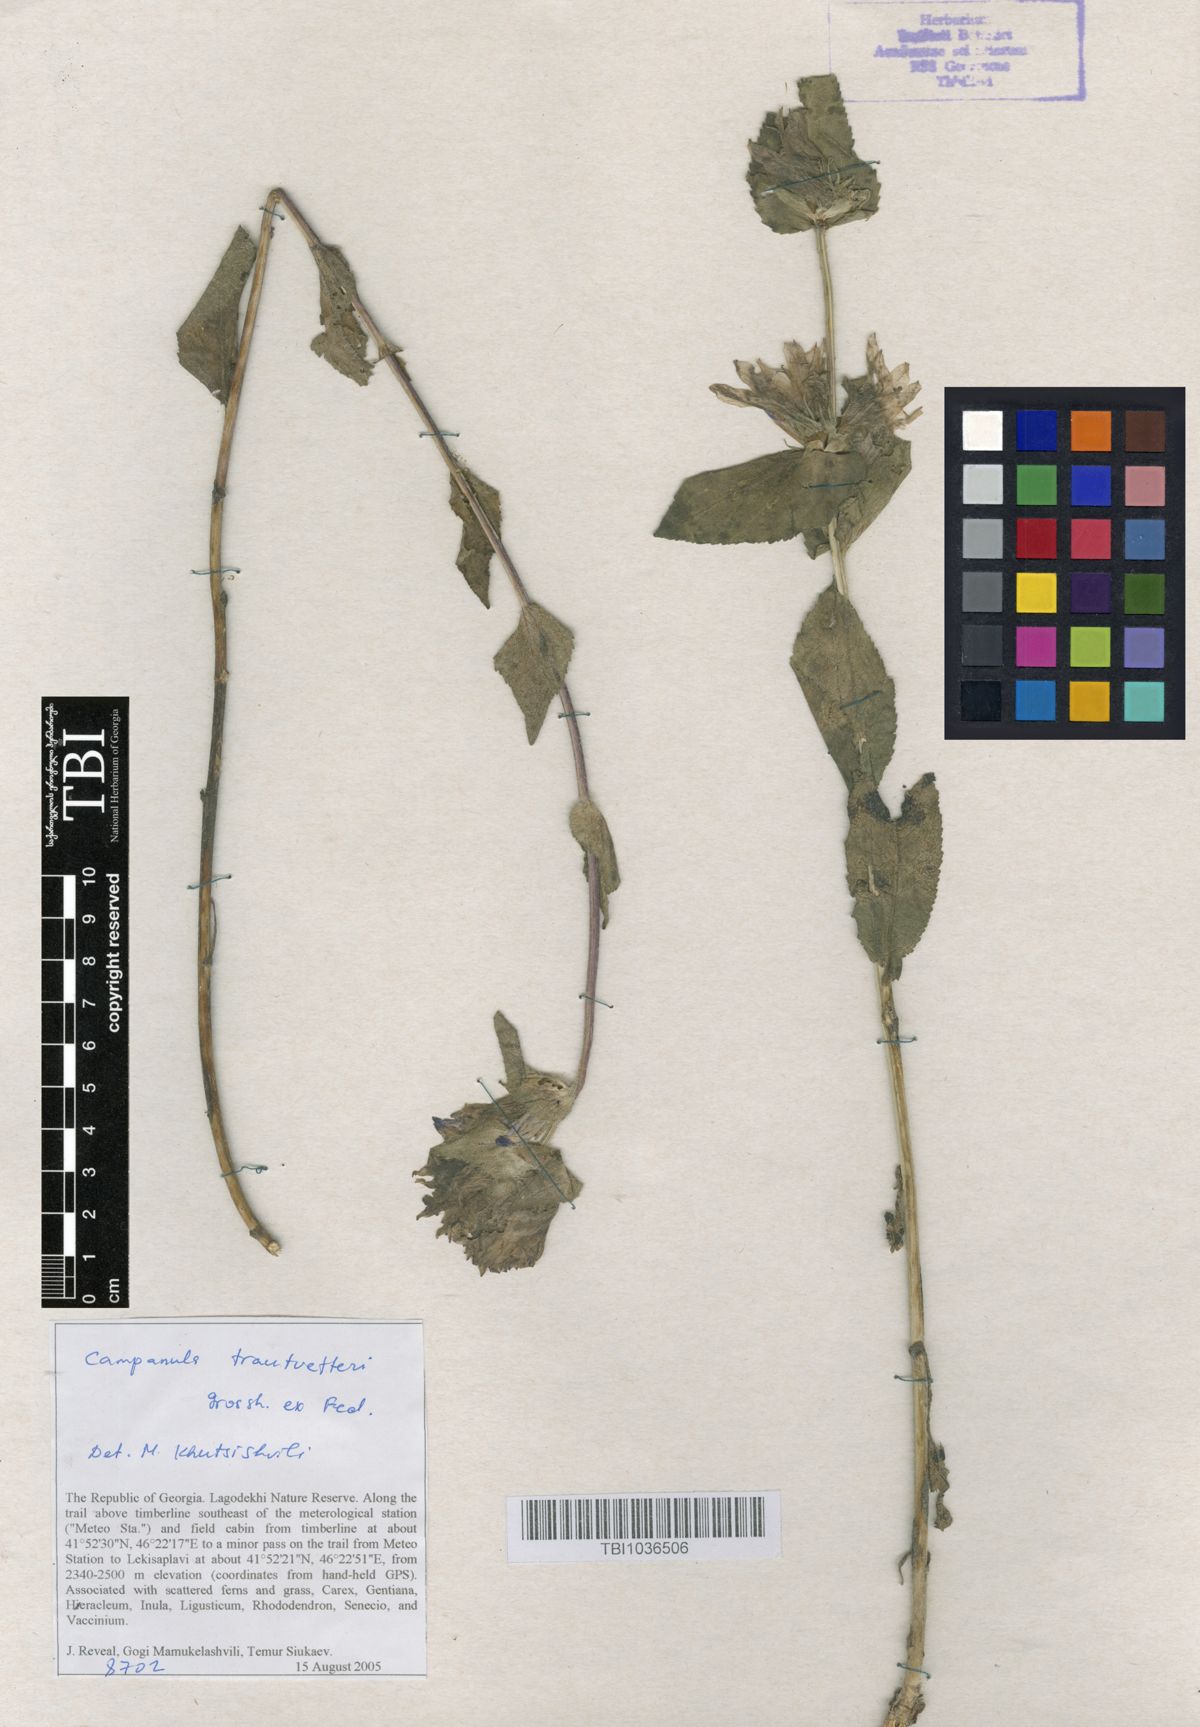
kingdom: Plantae
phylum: Tracheophyta
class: Magnoliopsida
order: Asterales
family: Campanulaceae
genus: Campanula
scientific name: Campanula glomerata
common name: Clustered bellflower
